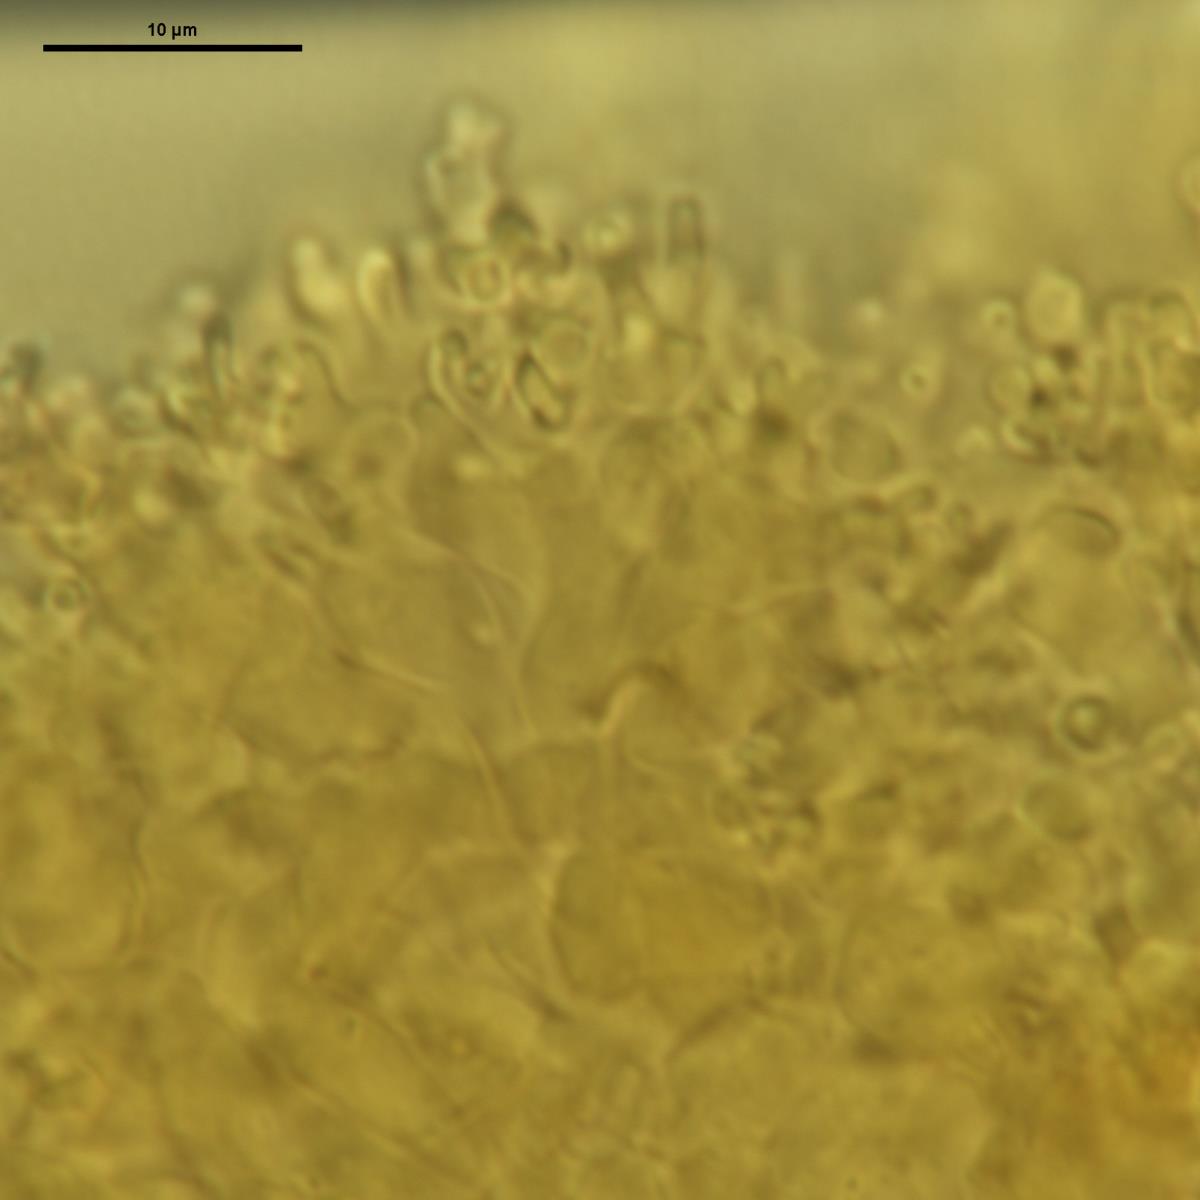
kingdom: Fungi
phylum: Basidiomycota
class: Agaricomycetes
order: Agaricales
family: Marasmiaceae
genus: Marasmius
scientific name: Marasmius kanukaneus
